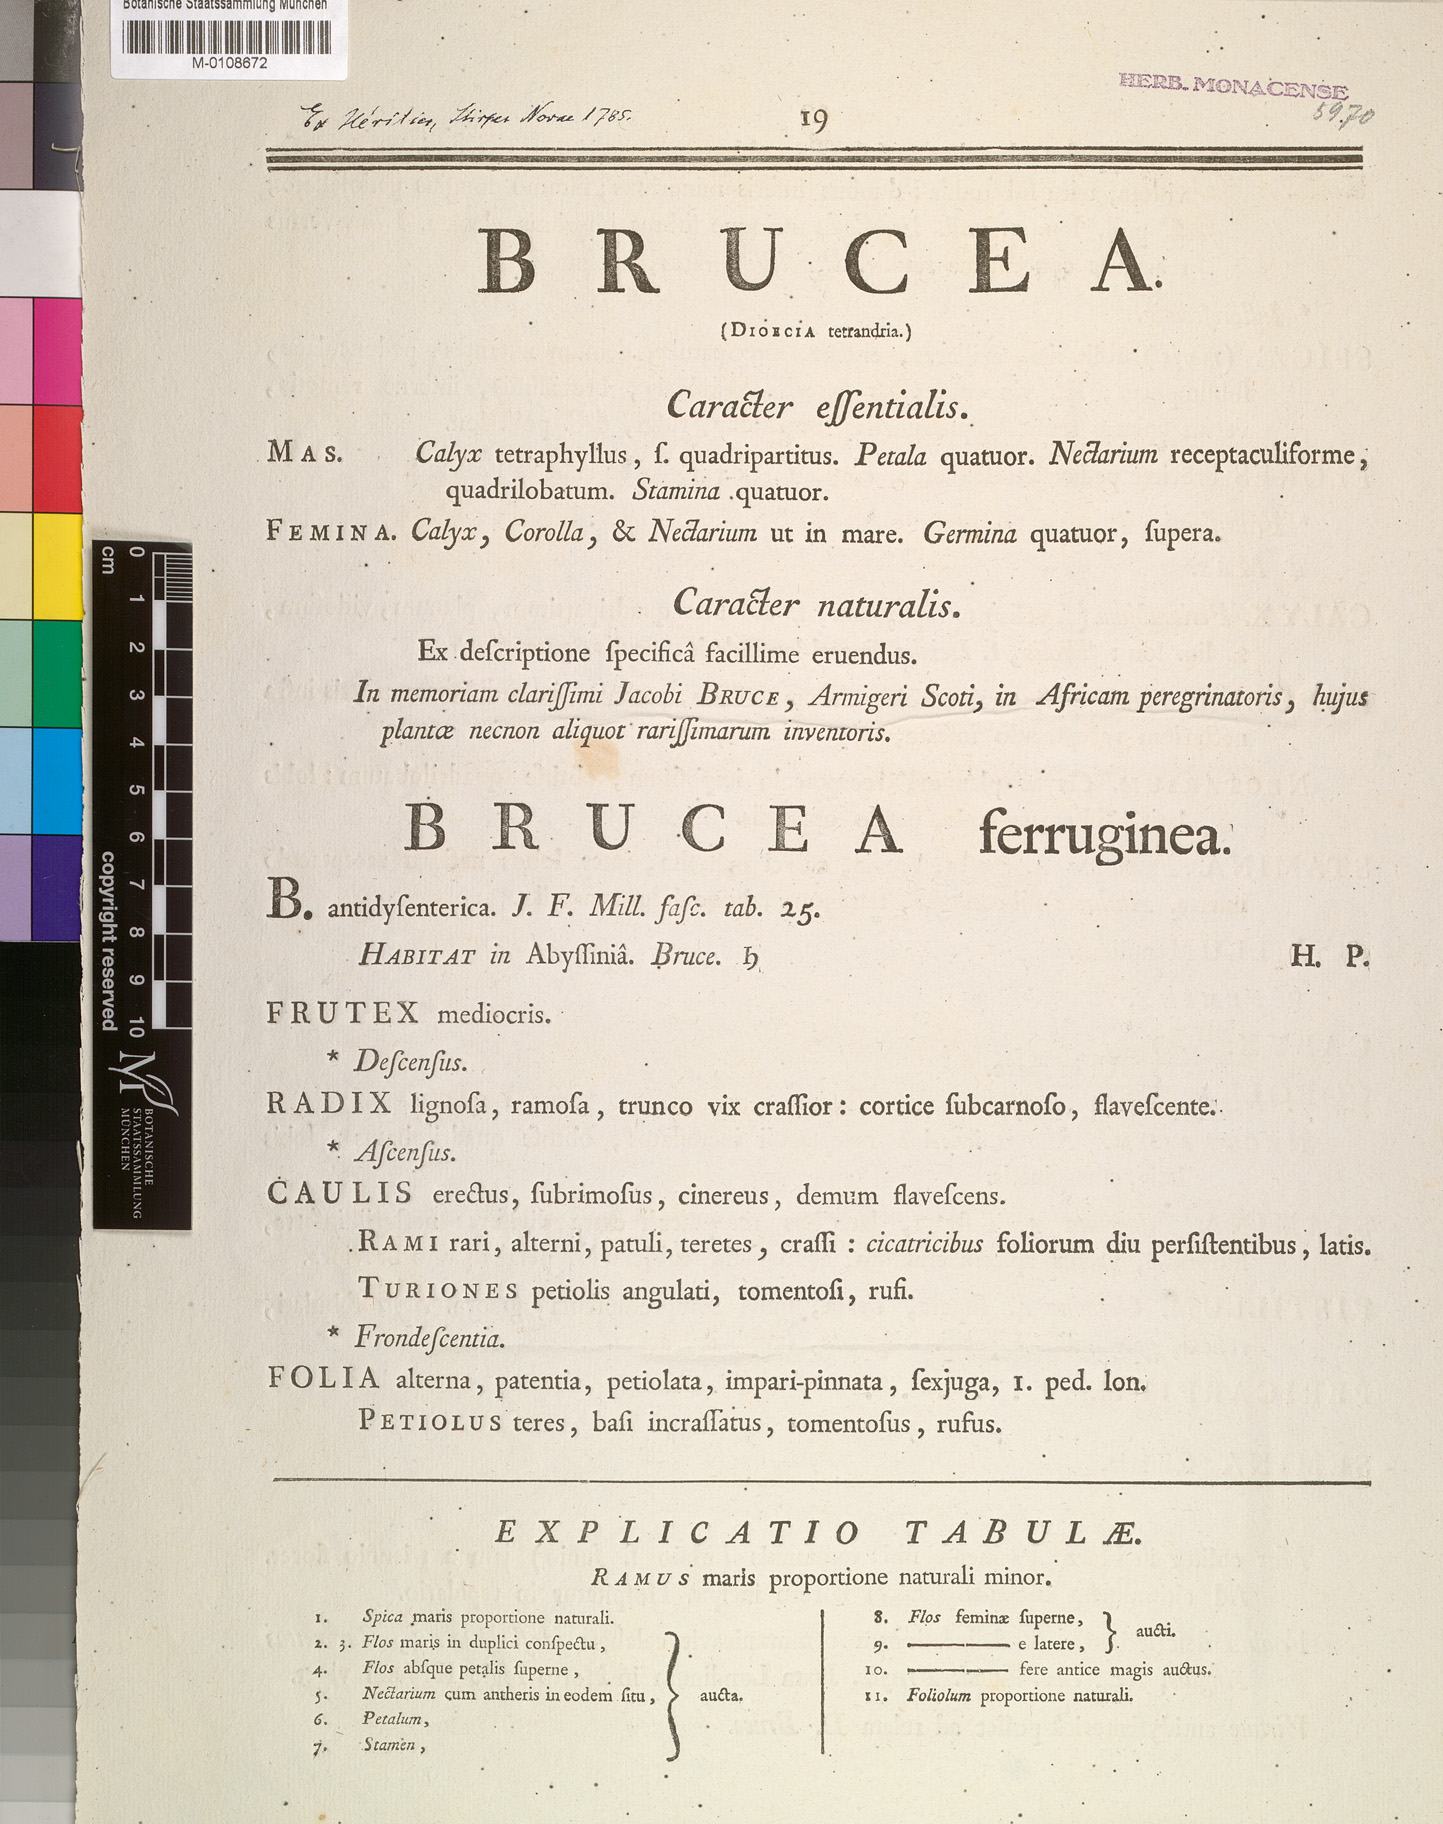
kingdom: Plantae
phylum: Tracheophyta
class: Magnoliopsida
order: Sapindales
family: Simaroubaceae
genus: Brucea
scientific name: Brucea antidysenterica
